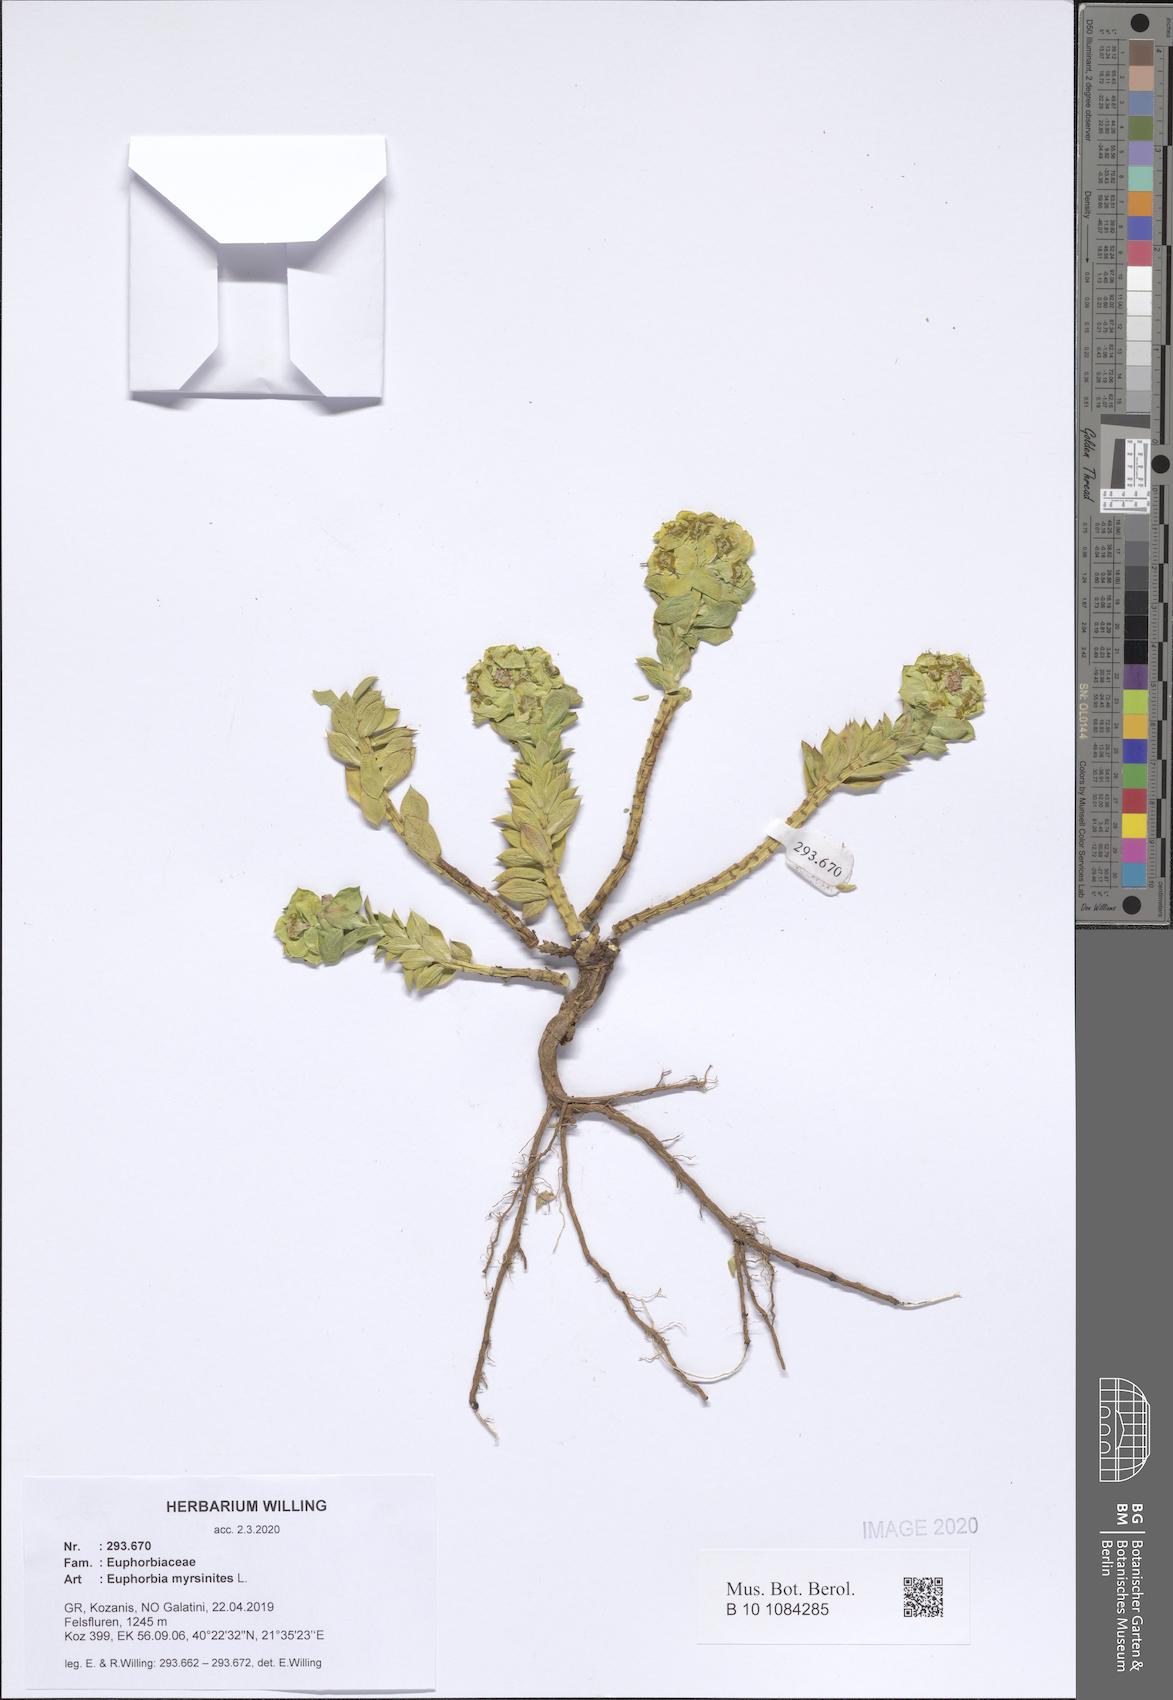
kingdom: Plantae
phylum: Tracheophyta
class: Magnoliopsida
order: Malpighiales
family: Euphorbiaceae
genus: Euphorbia
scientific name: Euphorbia myrsinites
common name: Myrtle spurge
